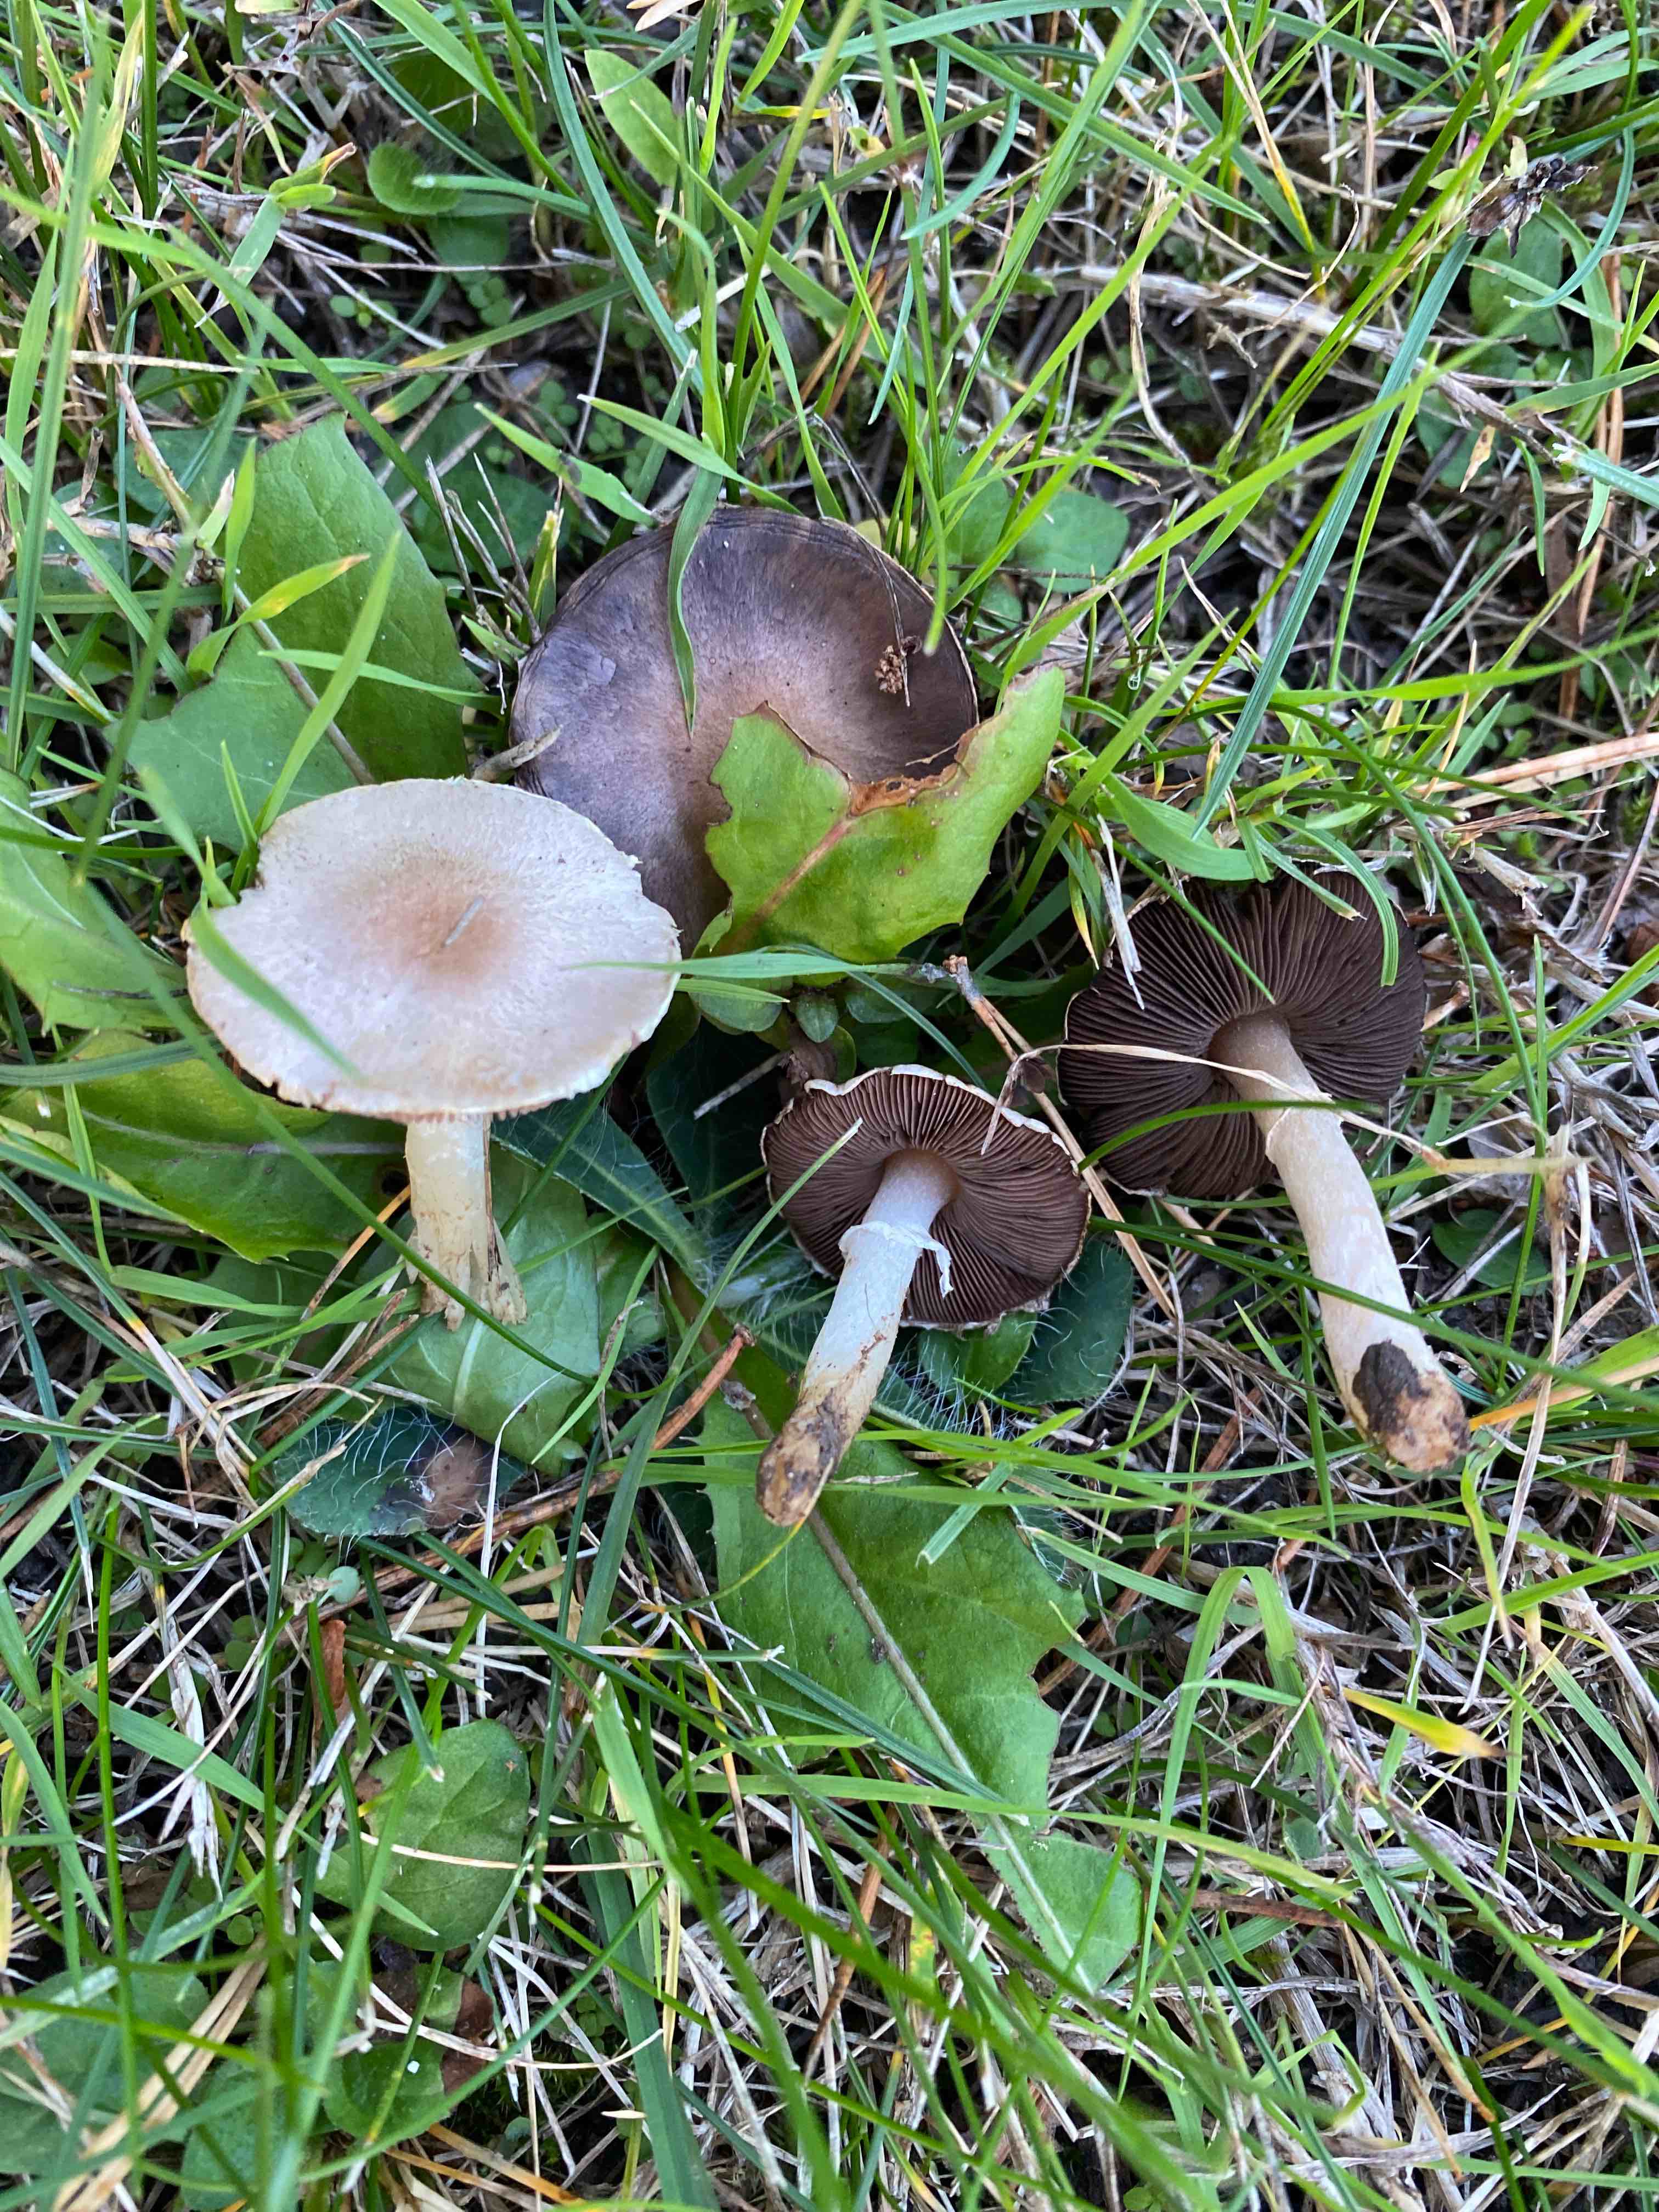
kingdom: Fungi
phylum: Basidiomycota
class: Agaricomycetes
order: Agaricales
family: Agaricaceae
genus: Agaricus
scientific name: Agaricus
